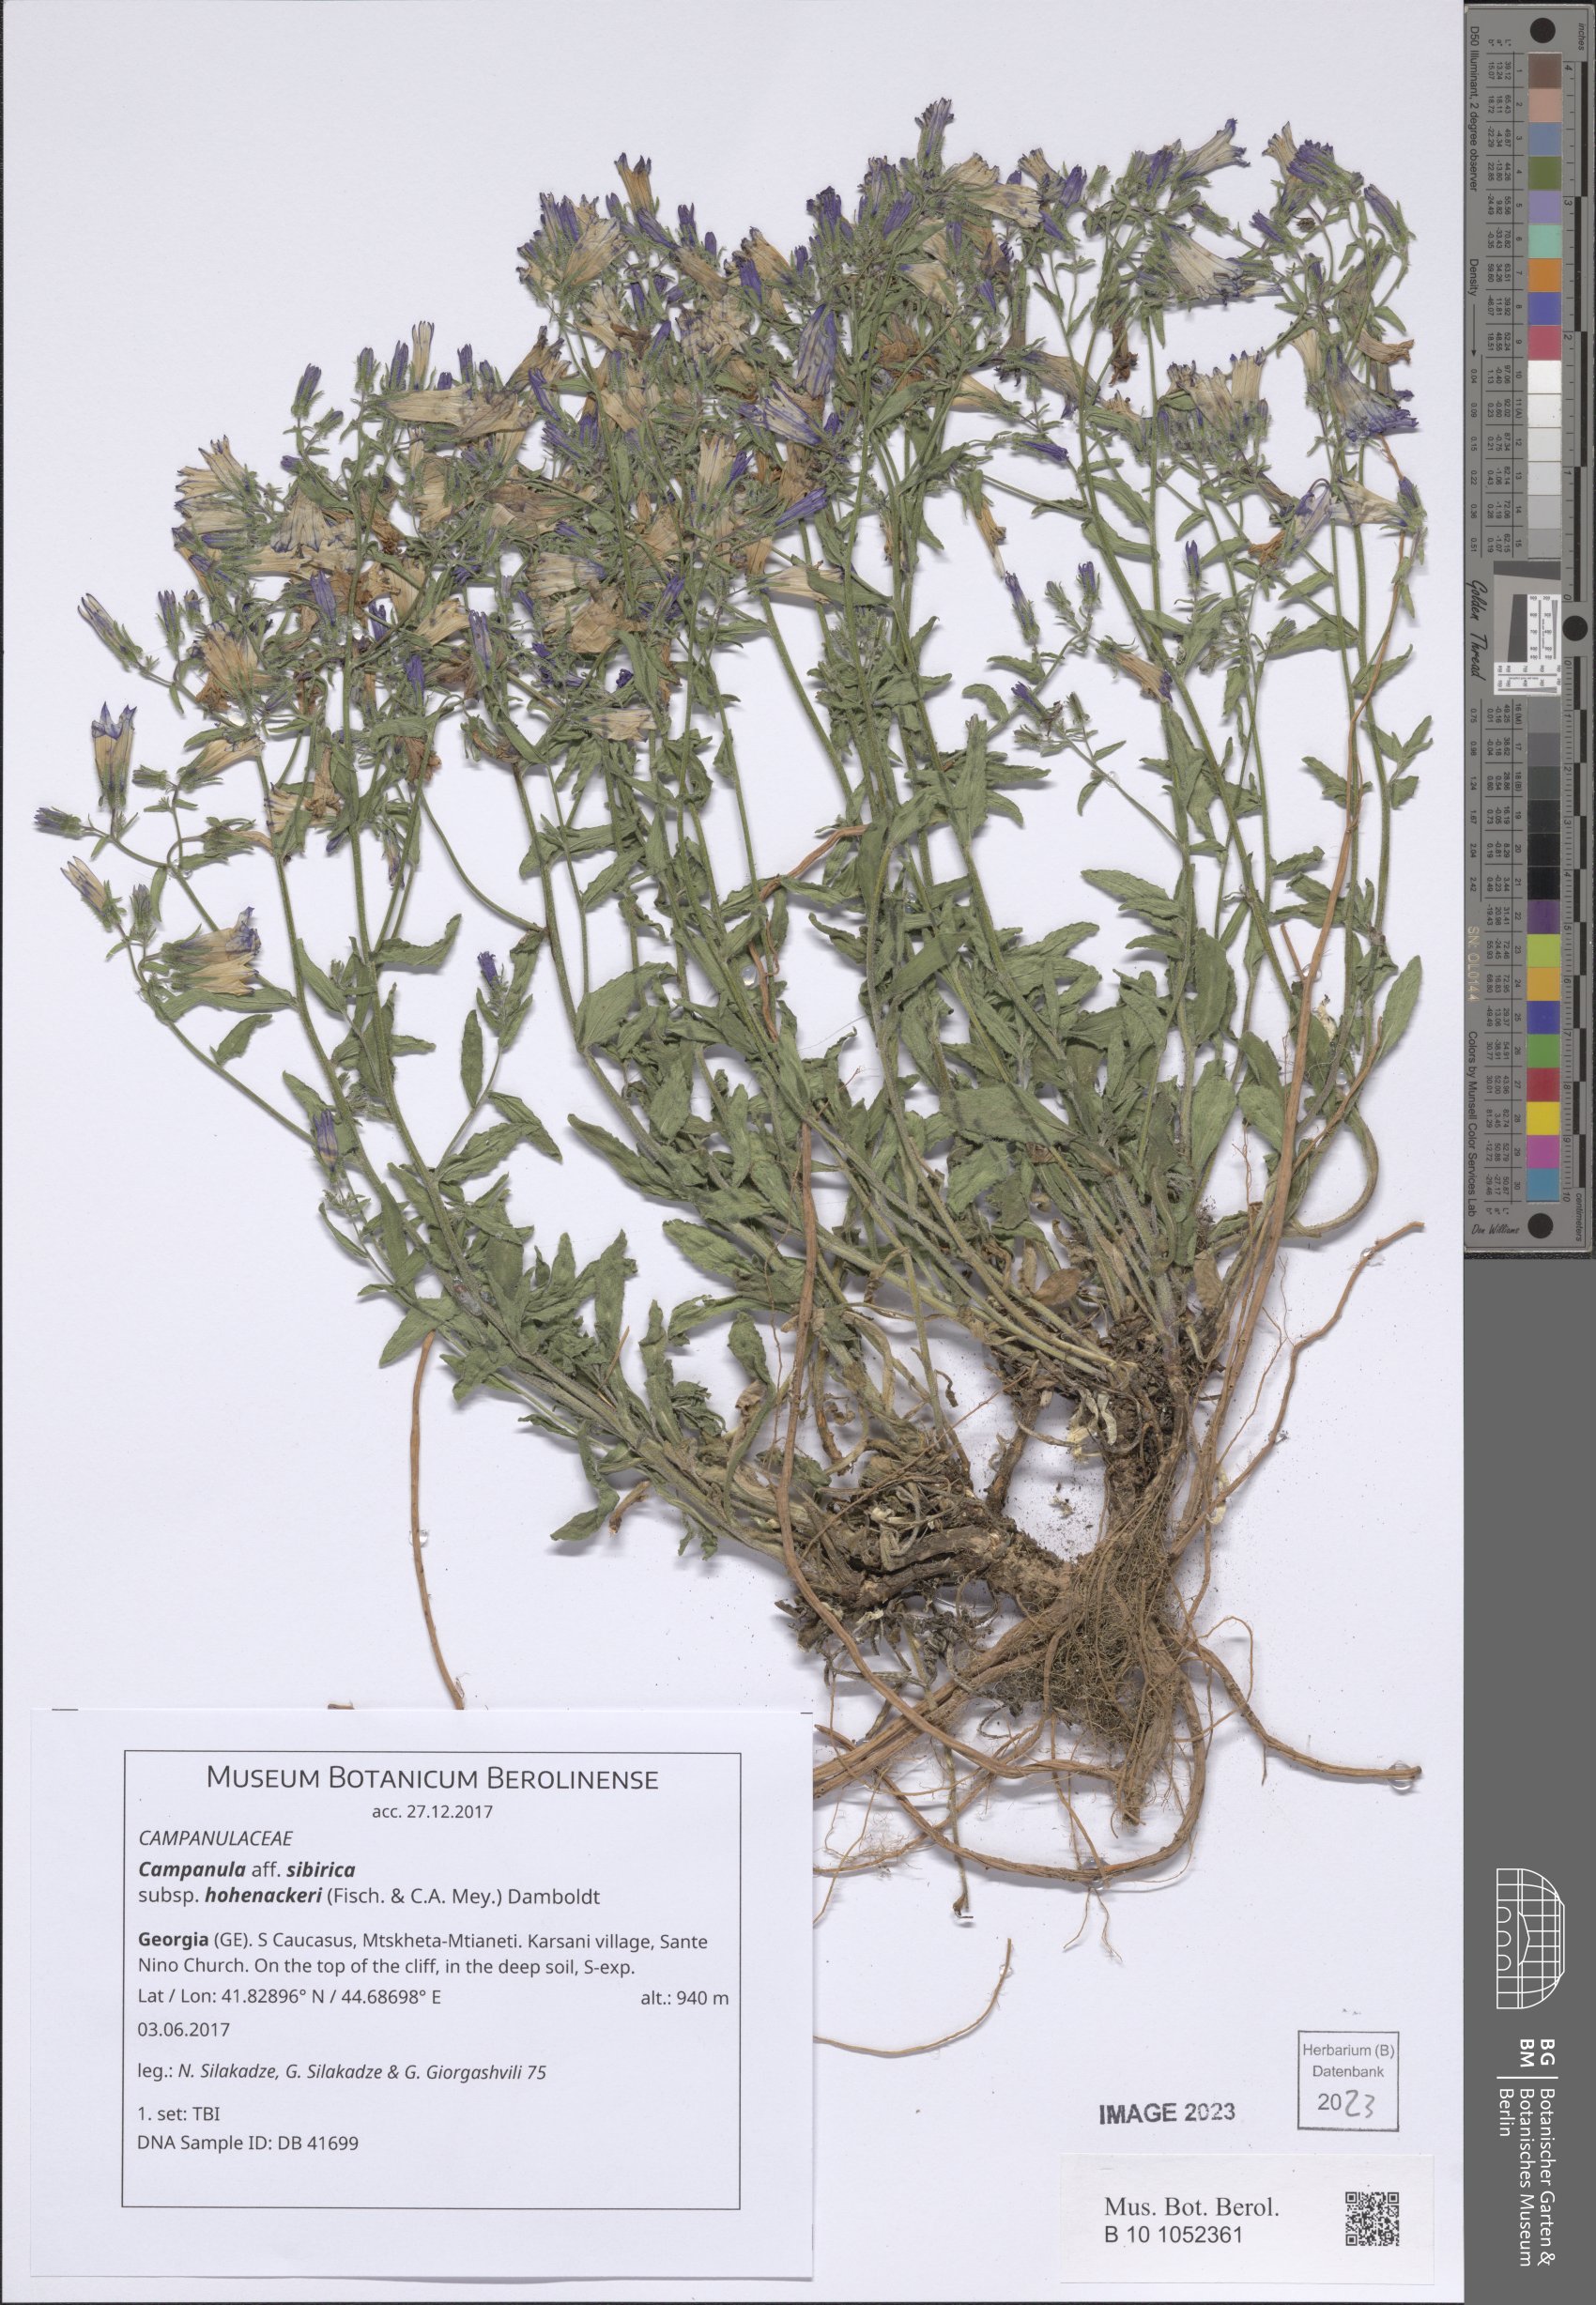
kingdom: Plantae
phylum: Tracheophyta
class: Magnoliopsida
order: Asterales
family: Campanulaceae
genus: Campanula
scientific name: Campanula sibirica
